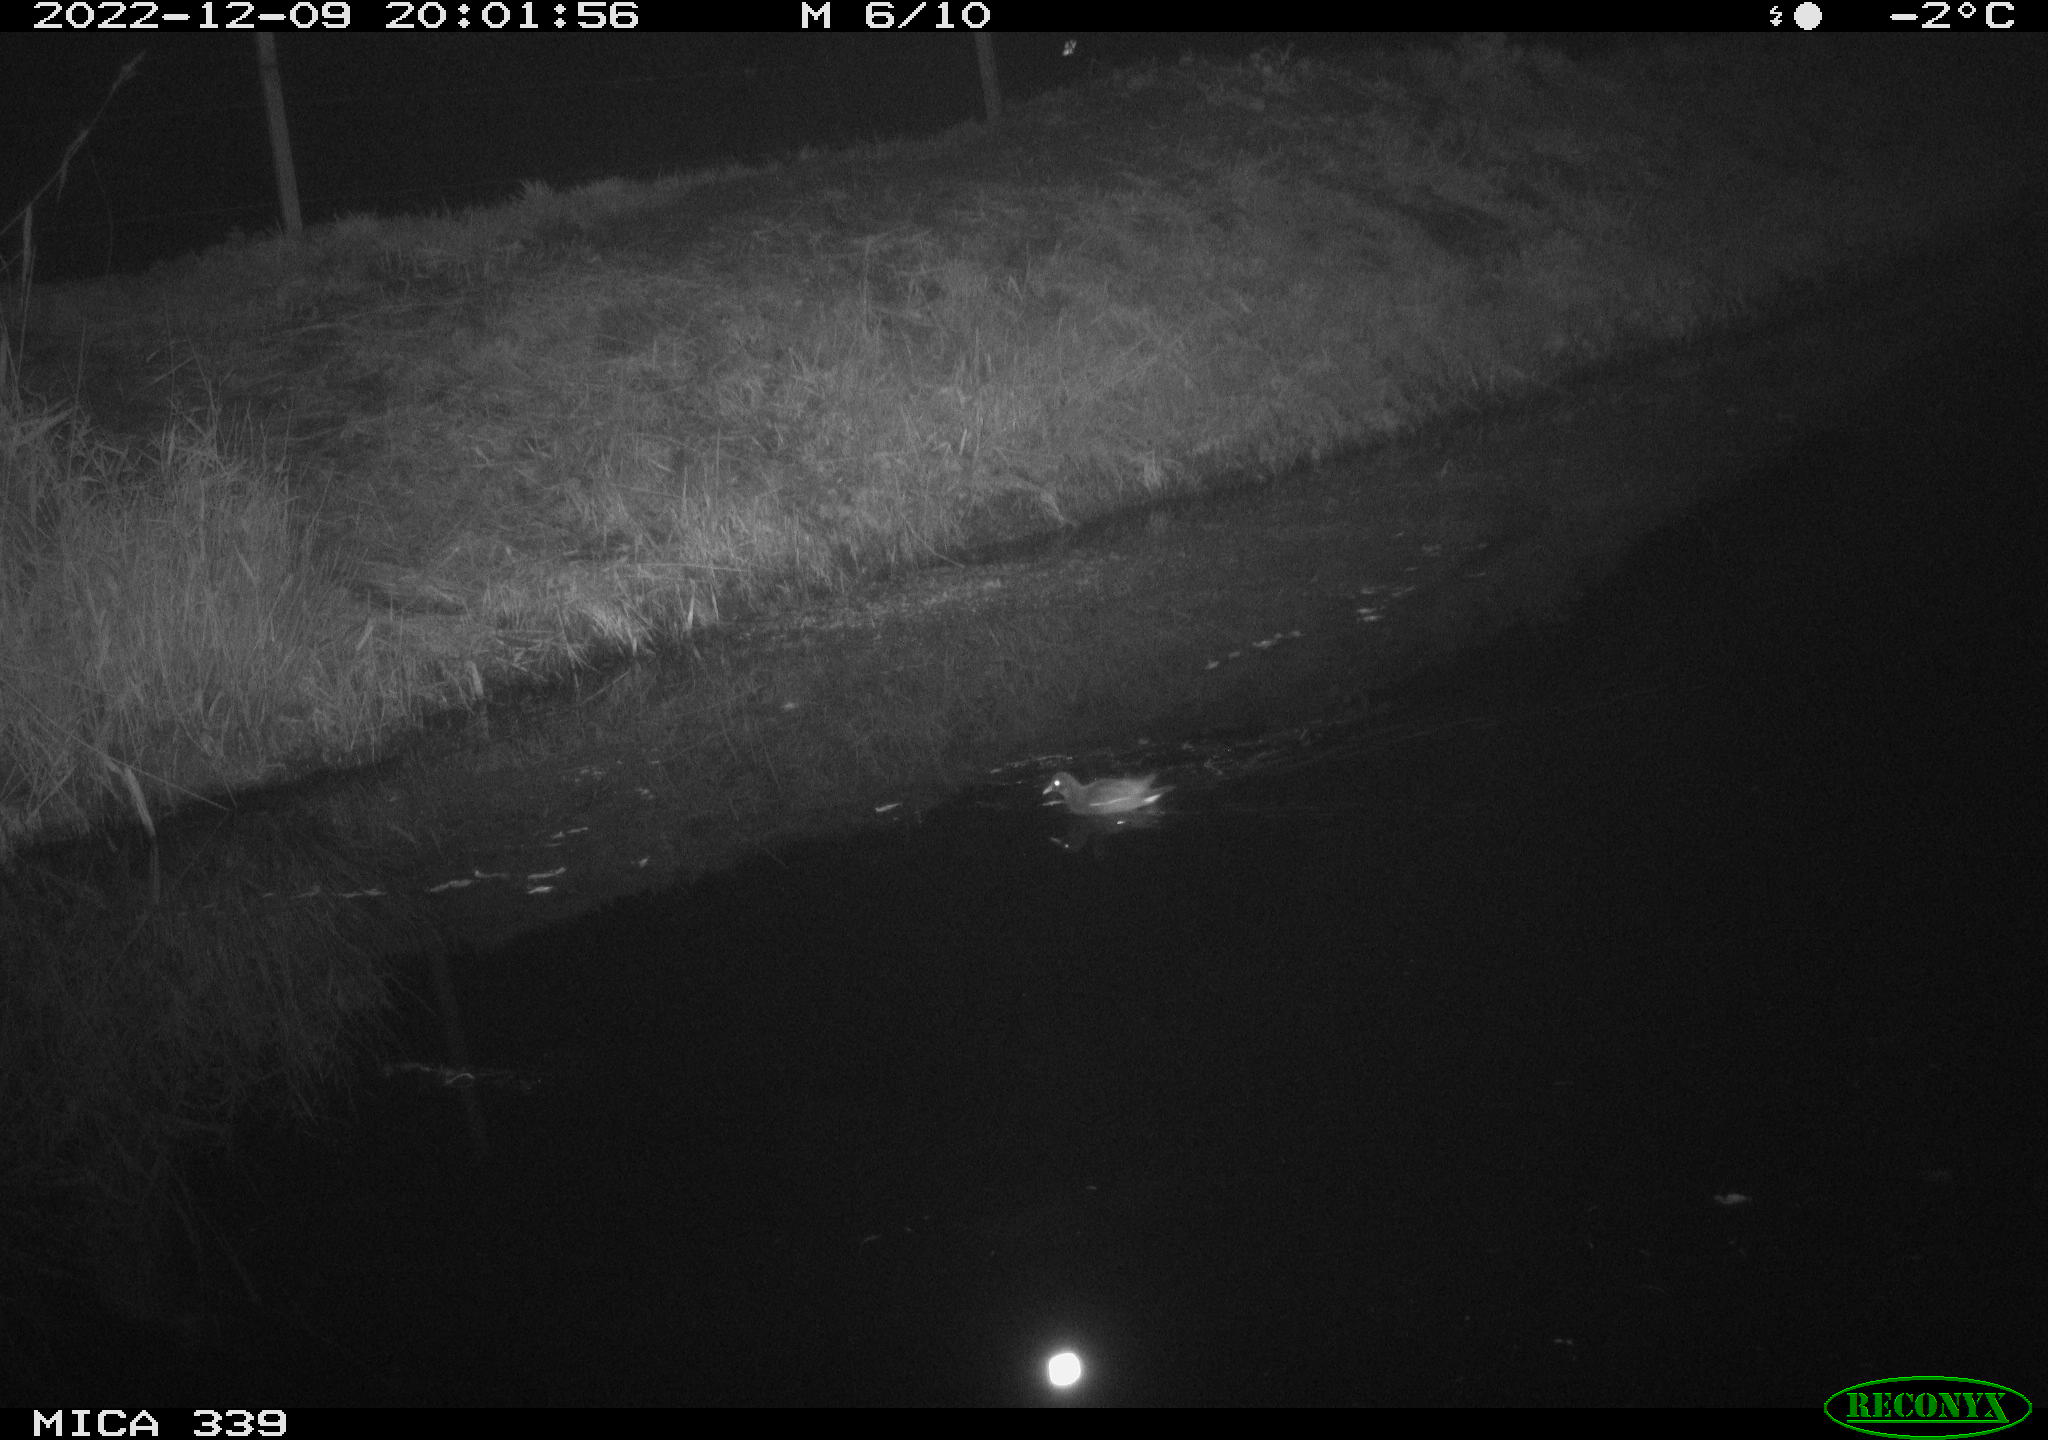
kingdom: Animalia
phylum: Chordata
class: Aves
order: Gruiformes
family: Rallidae
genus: Gallinula
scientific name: Gallinula chloropus
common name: Common moorhen
